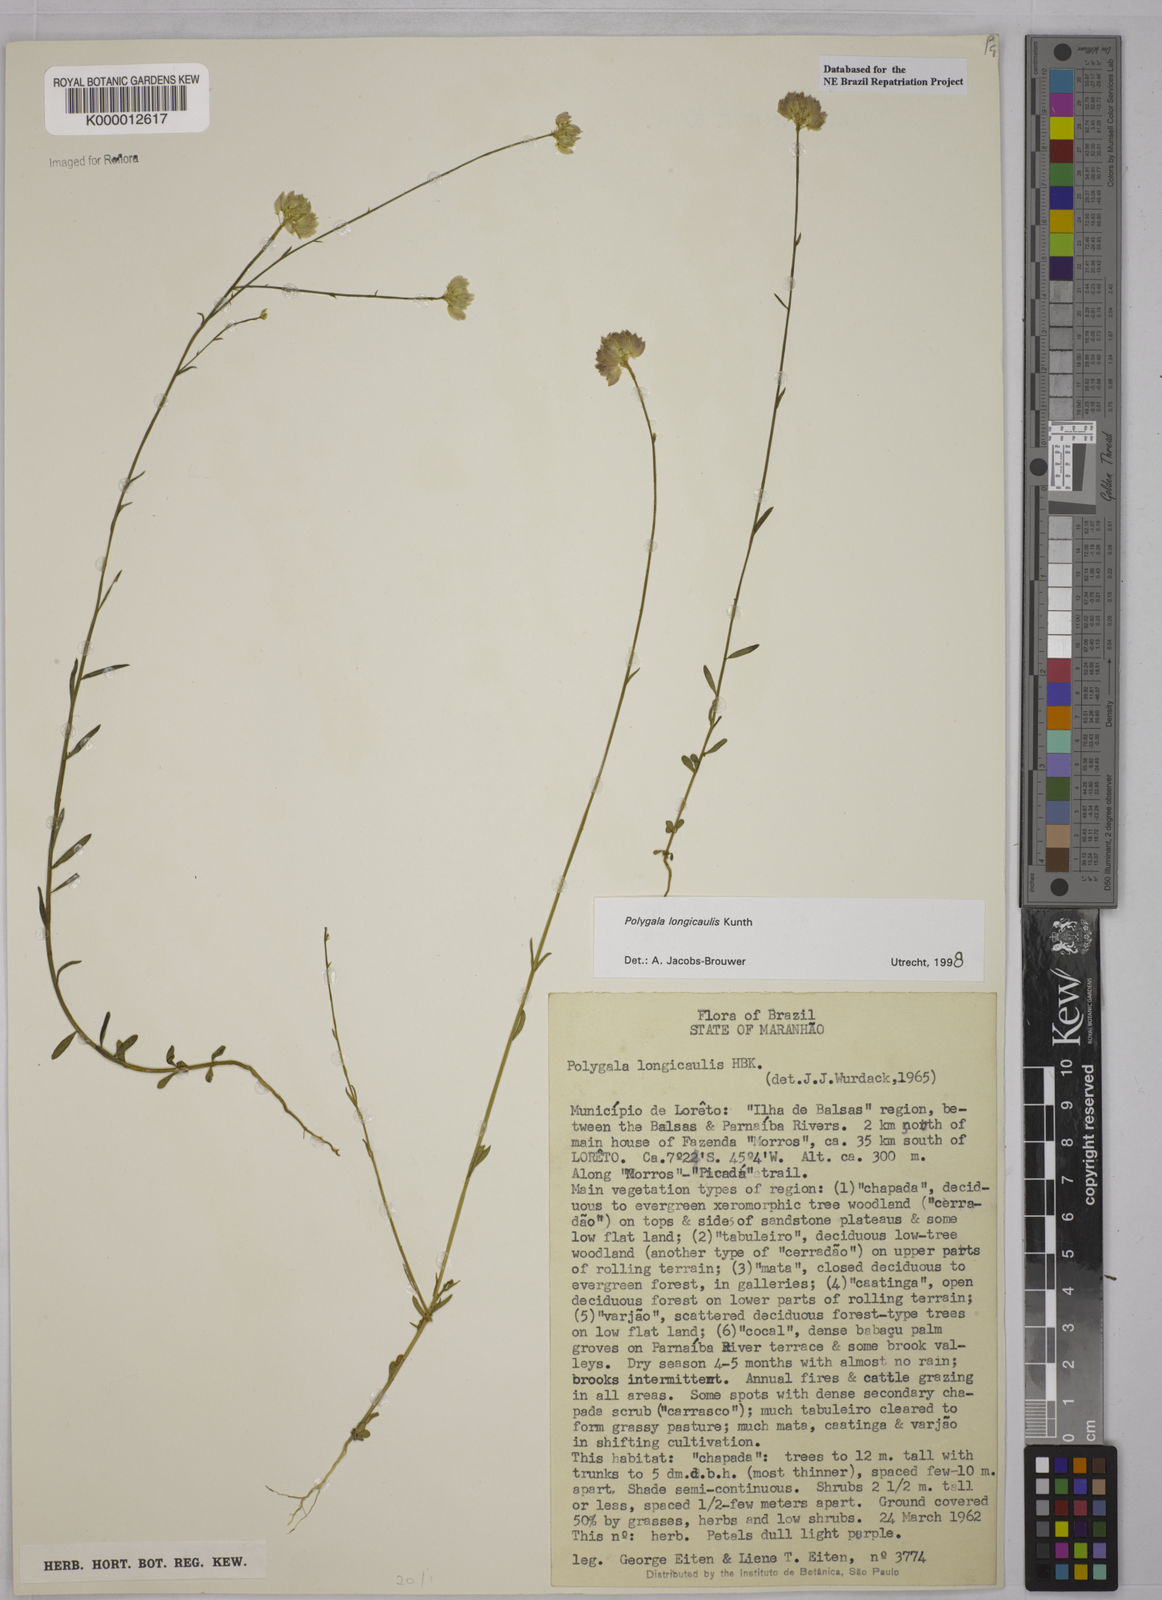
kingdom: Plantae
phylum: Tracheophyta
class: Magnoliopsida
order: Fabales
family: Polygalaceae
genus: Polygala
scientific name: Polygala longicaulis
